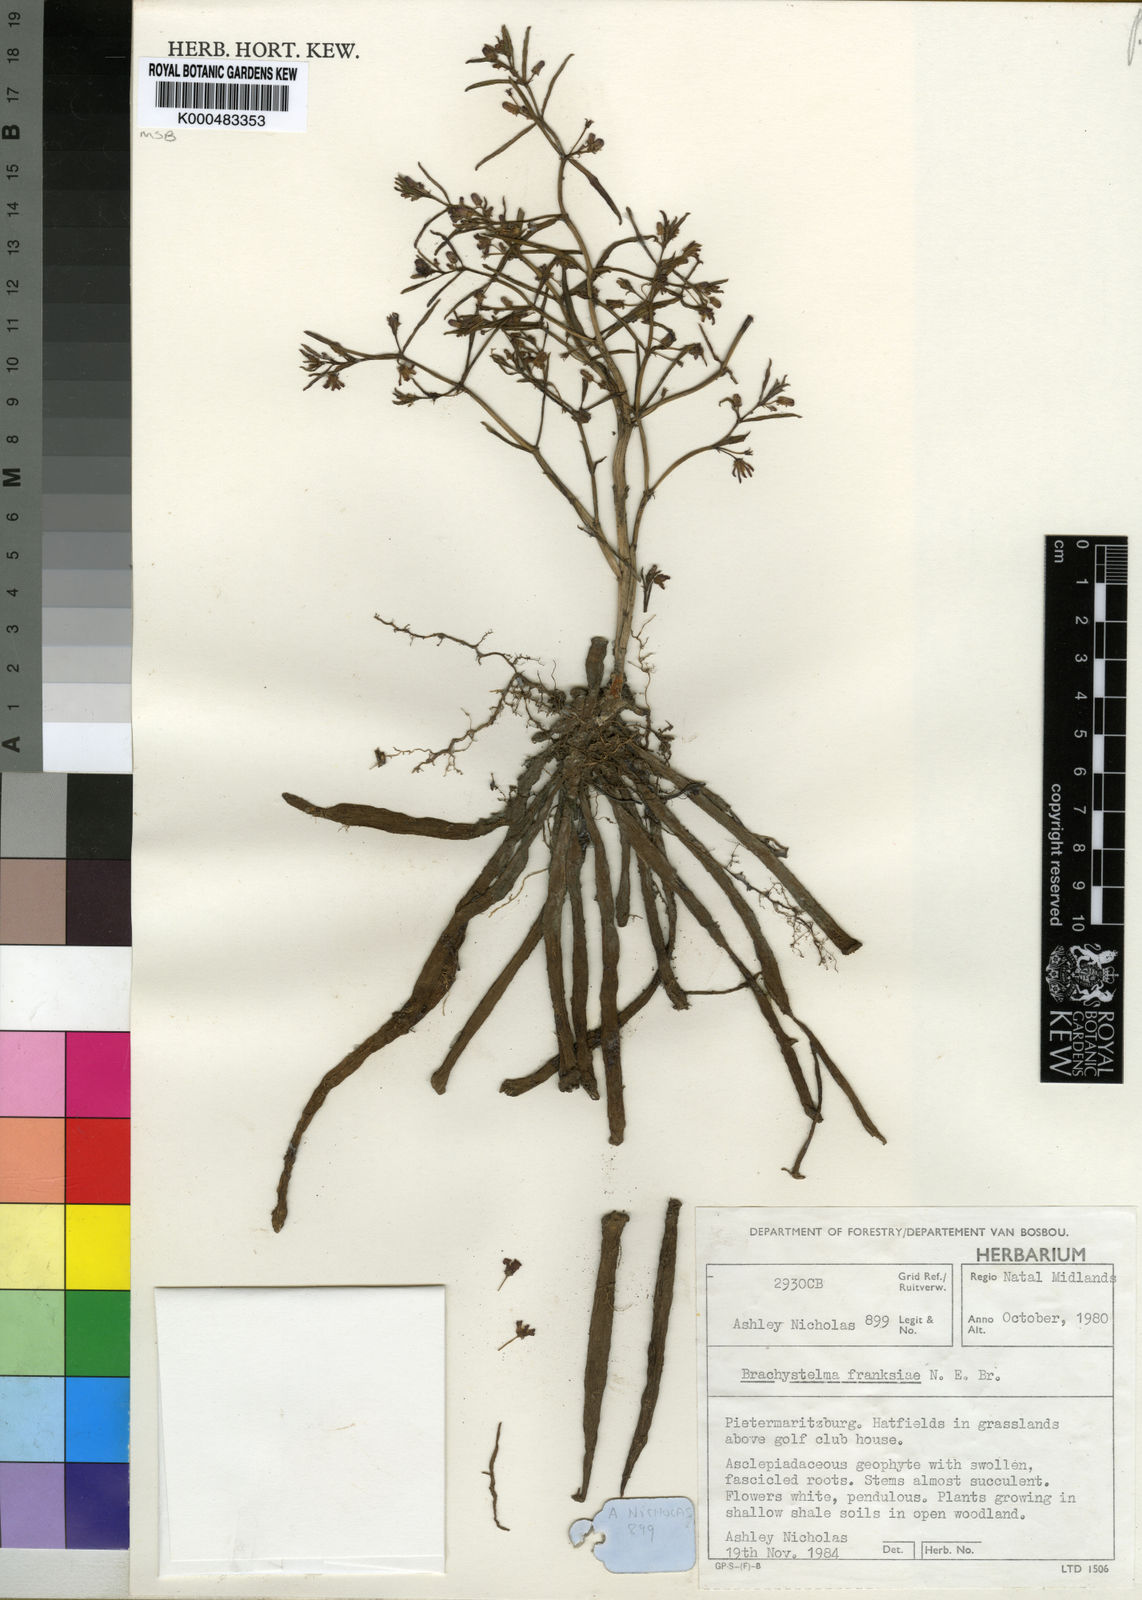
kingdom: Plantae
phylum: Tracheophyta
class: Magnoliopsida
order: Gentianales
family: Apocynaceae
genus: Ceropegia
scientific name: Ceropegia franksiae
